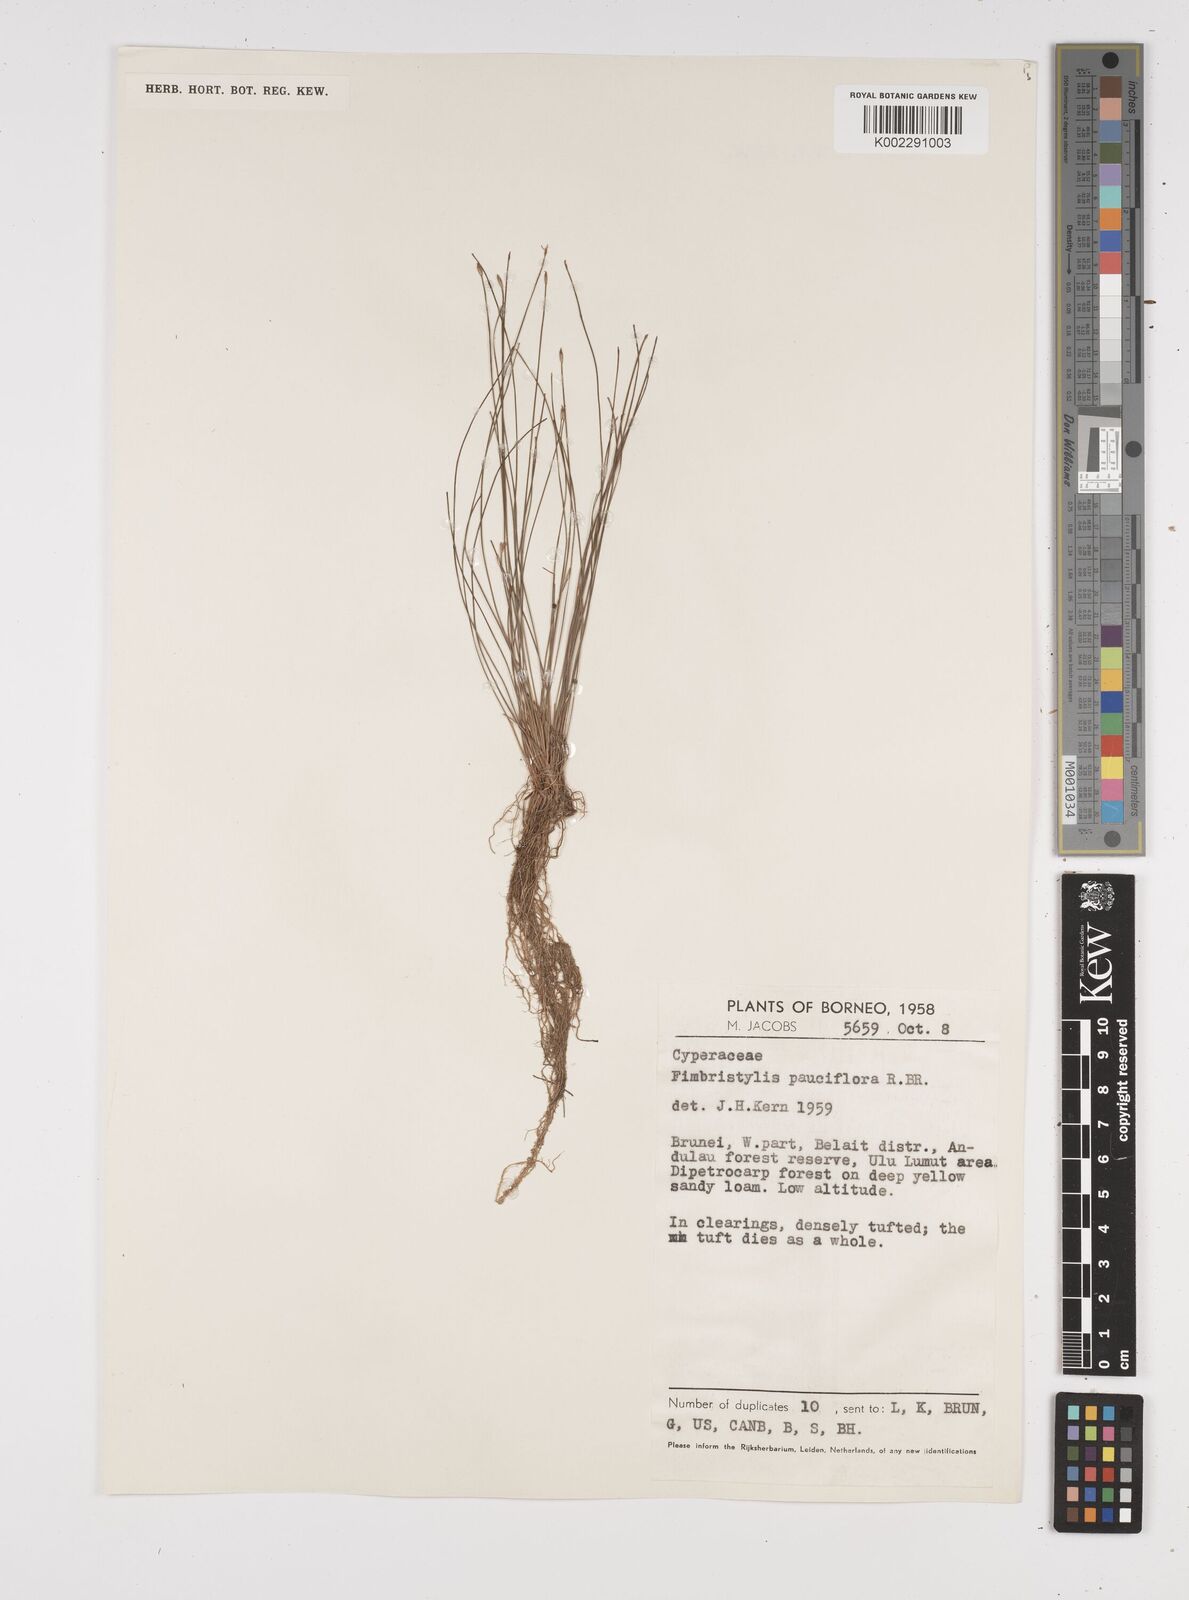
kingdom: Plantae
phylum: Tracheophyta
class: Liliopsida
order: Poales
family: Cyperaceae
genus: Fimbristylis
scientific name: Fimbristylis pauciflora
